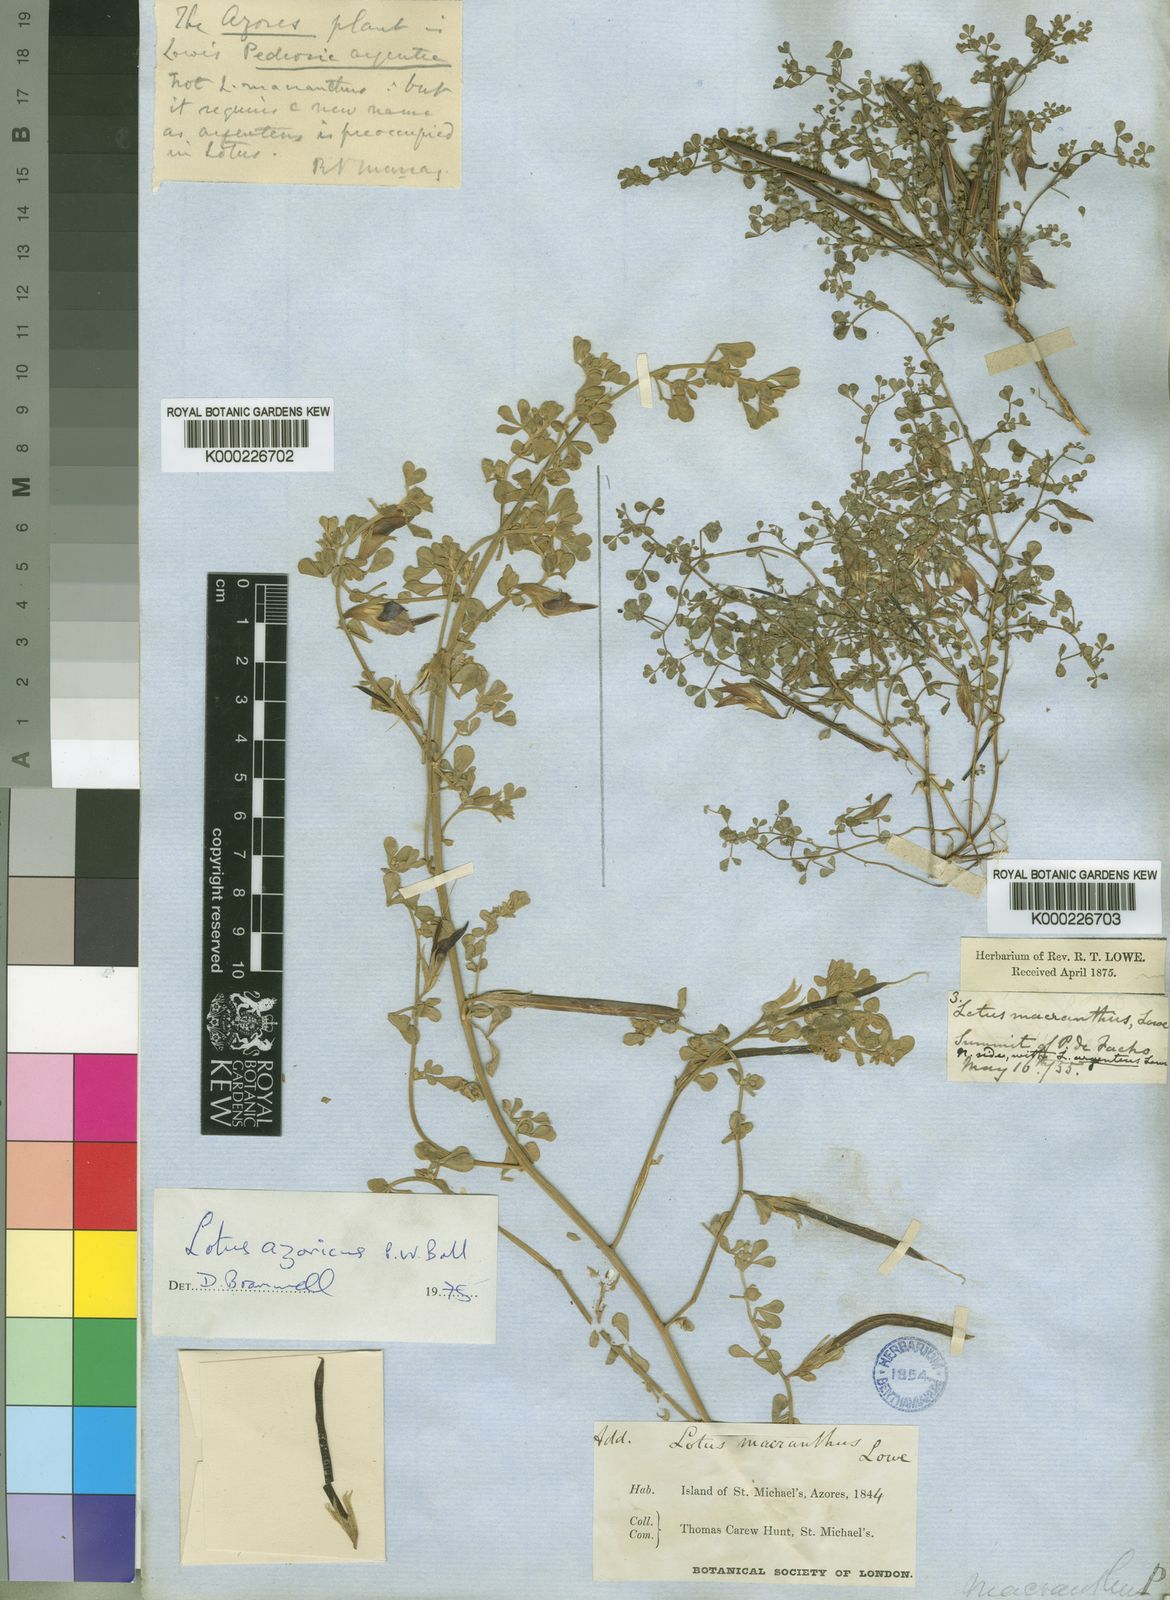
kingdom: Plantae
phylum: Tracheophyta
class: Magnoliopsida
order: Fabales
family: Fabaceae
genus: Lotus
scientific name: Lotus macranthus
